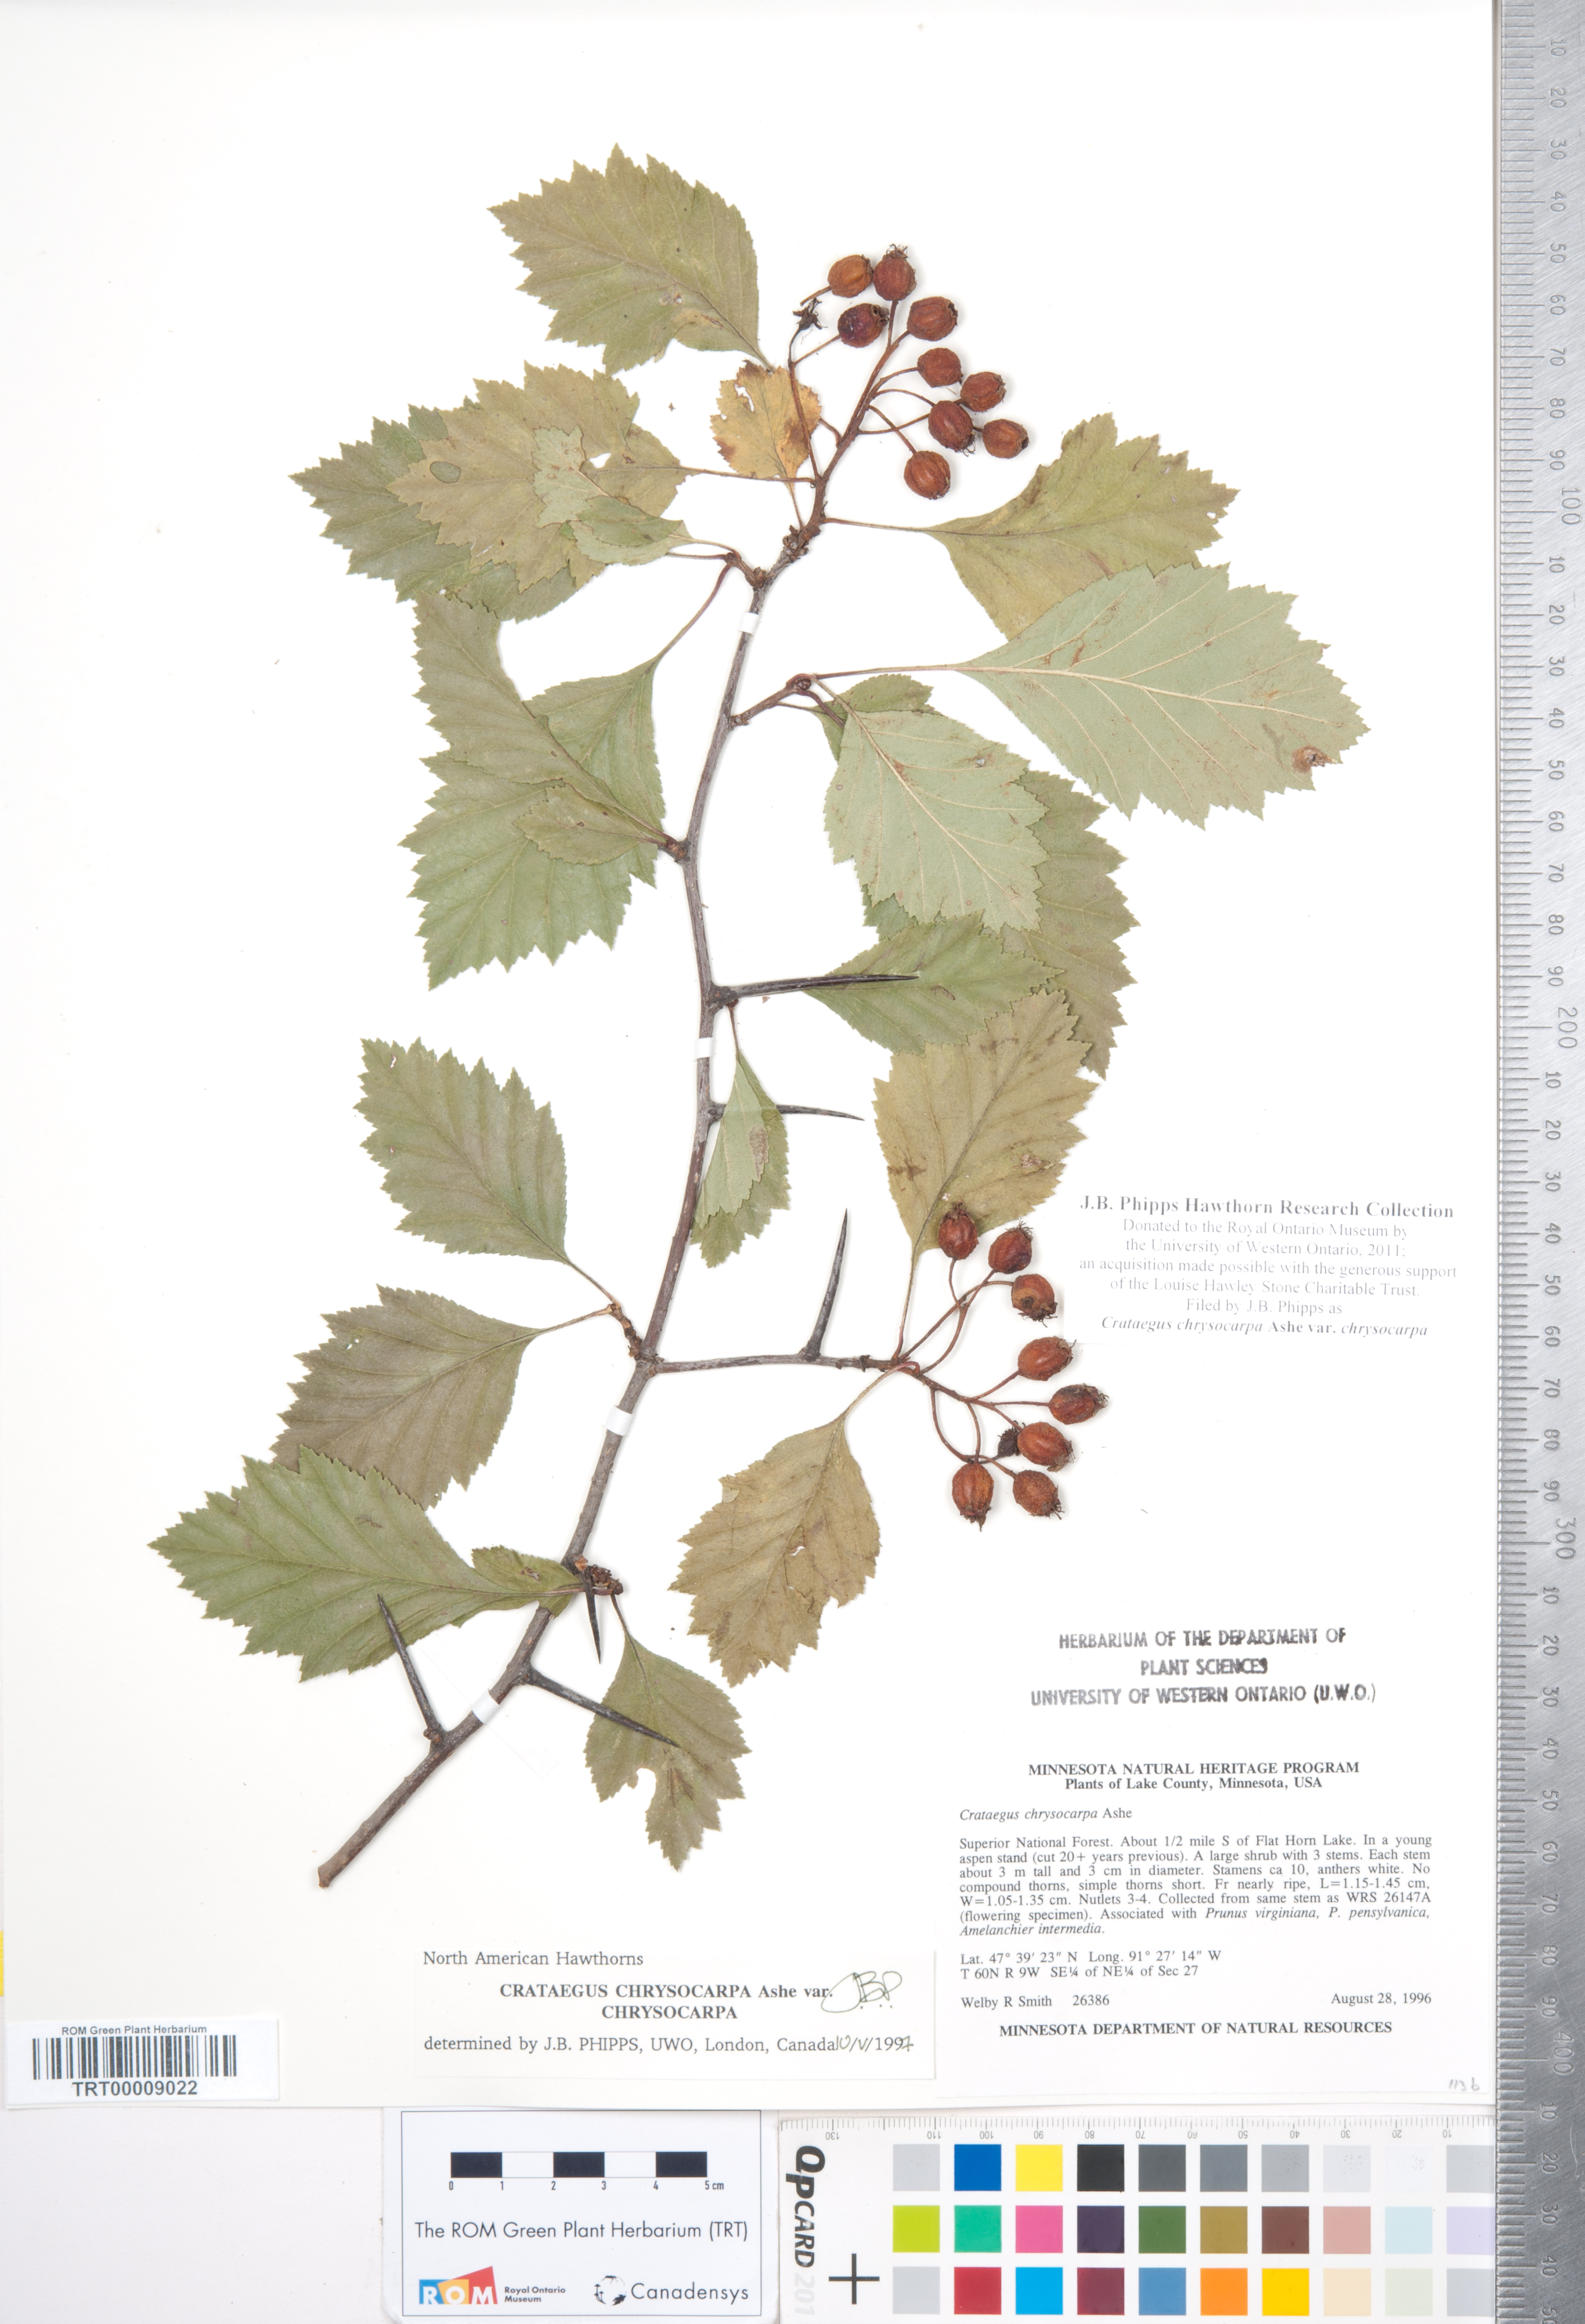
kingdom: Plantae
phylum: Tracheophyta
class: Magnoliopsida
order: Rosales
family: Rosaceae
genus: Crataegus
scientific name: Crataegus chrysocarpa
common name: Fire-berry hawthorn
